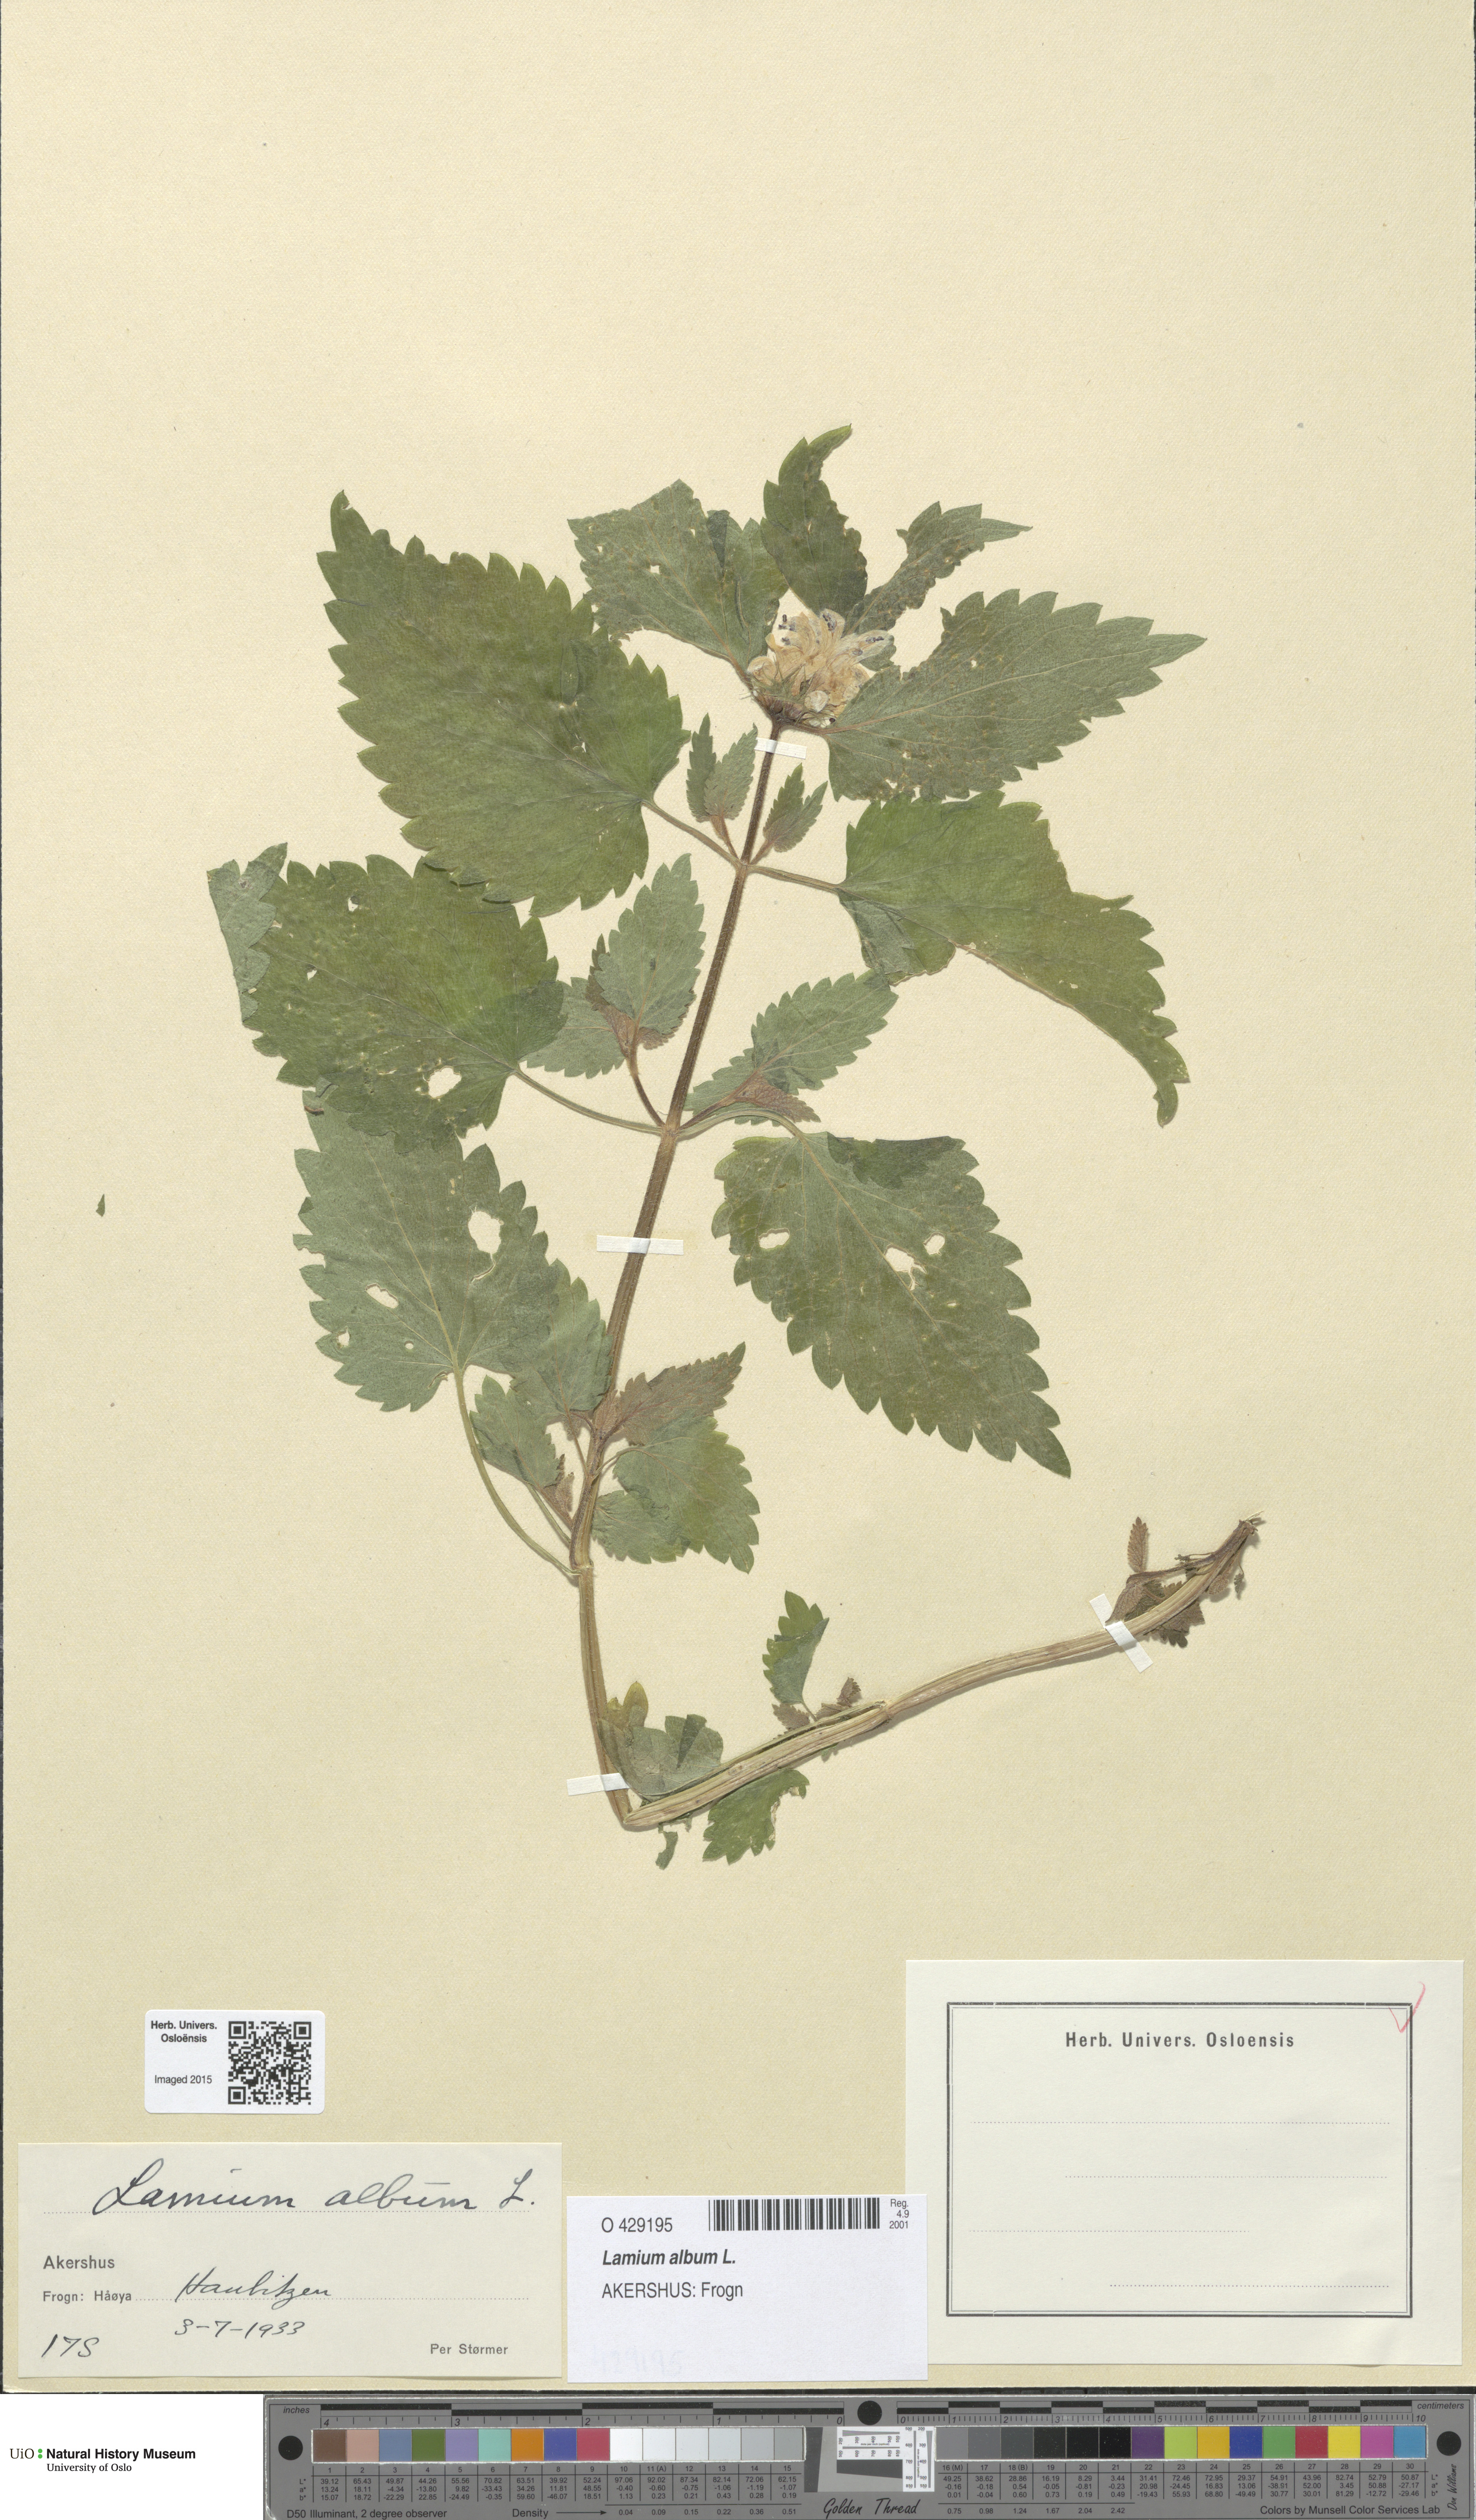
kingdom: Plantae
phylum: Tracheophyta
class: Magnoliopsida
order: Lamiales
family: Lamiaceae
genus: Lamium
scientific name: Lamium album
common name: White dead-nettle
